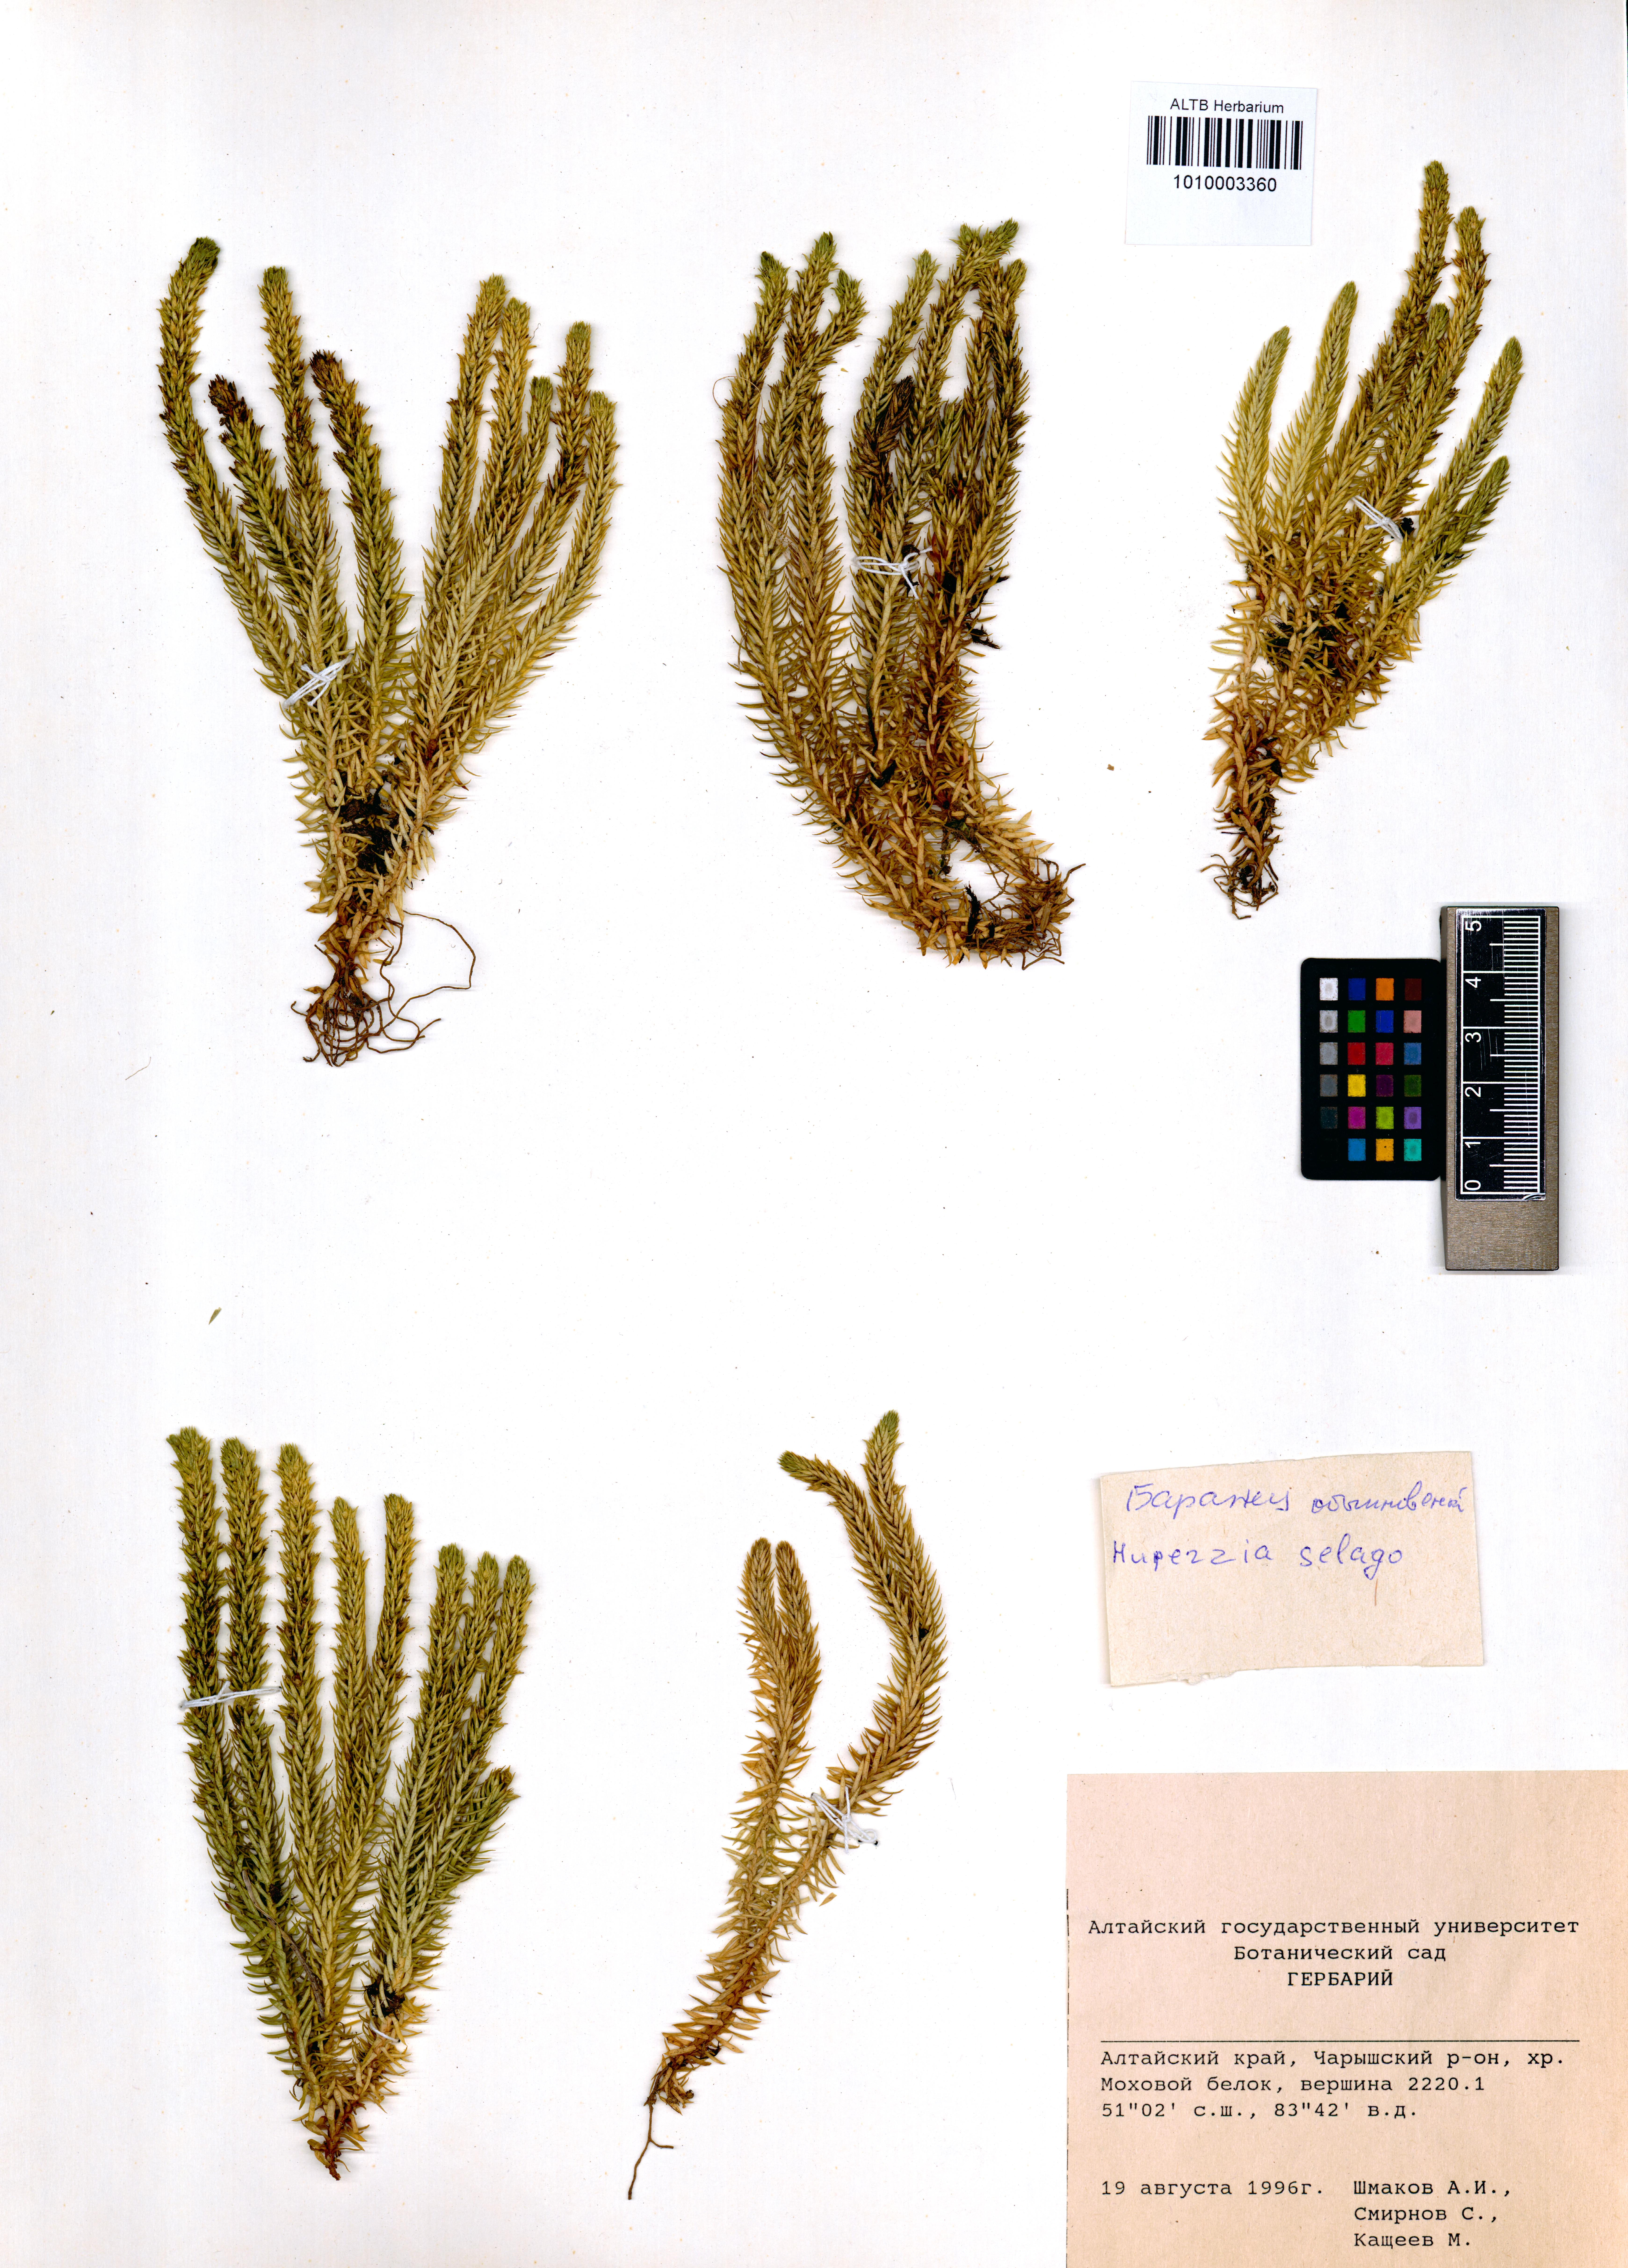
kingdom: Plantae
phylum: Tracheophyta
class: Lycopodiopsida
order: Lycopodiales
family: Lycopodiaceae
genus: Huperzia
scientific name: Huperzia selago
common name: Northern firmoss
